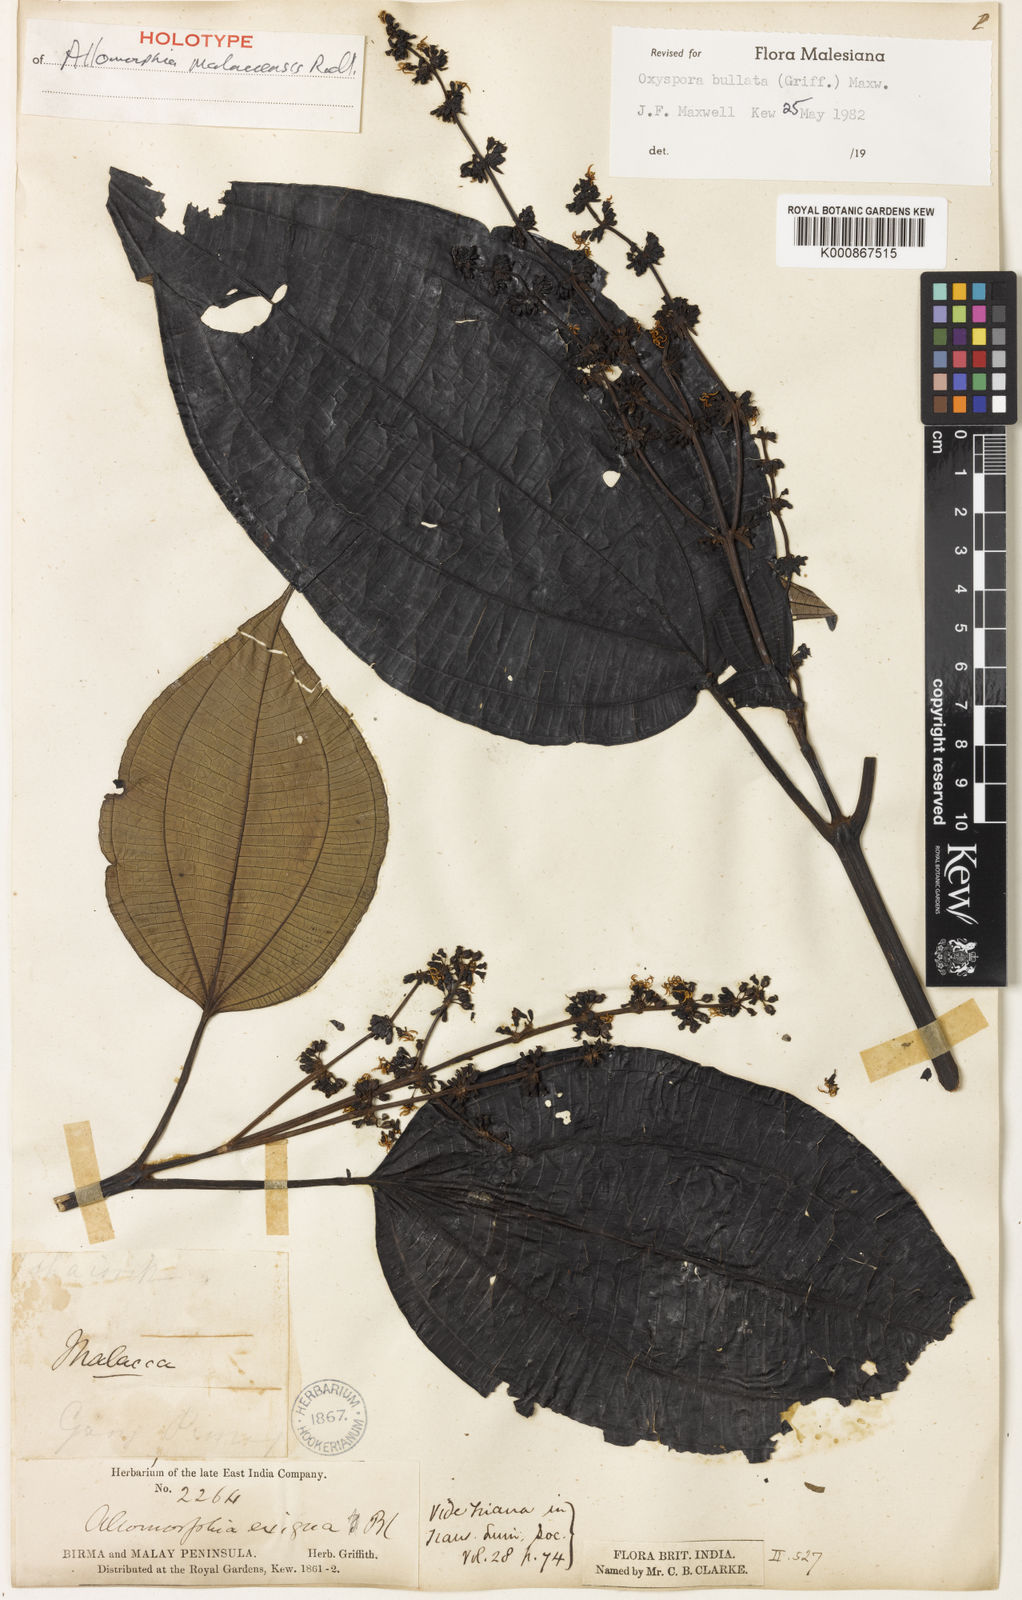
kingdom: Plantae
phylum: Tracheophyta
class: Magnoliopsida
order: Myrtales
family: Melastomataceae
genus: Allomorphia
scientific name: Allomorphia bullata
